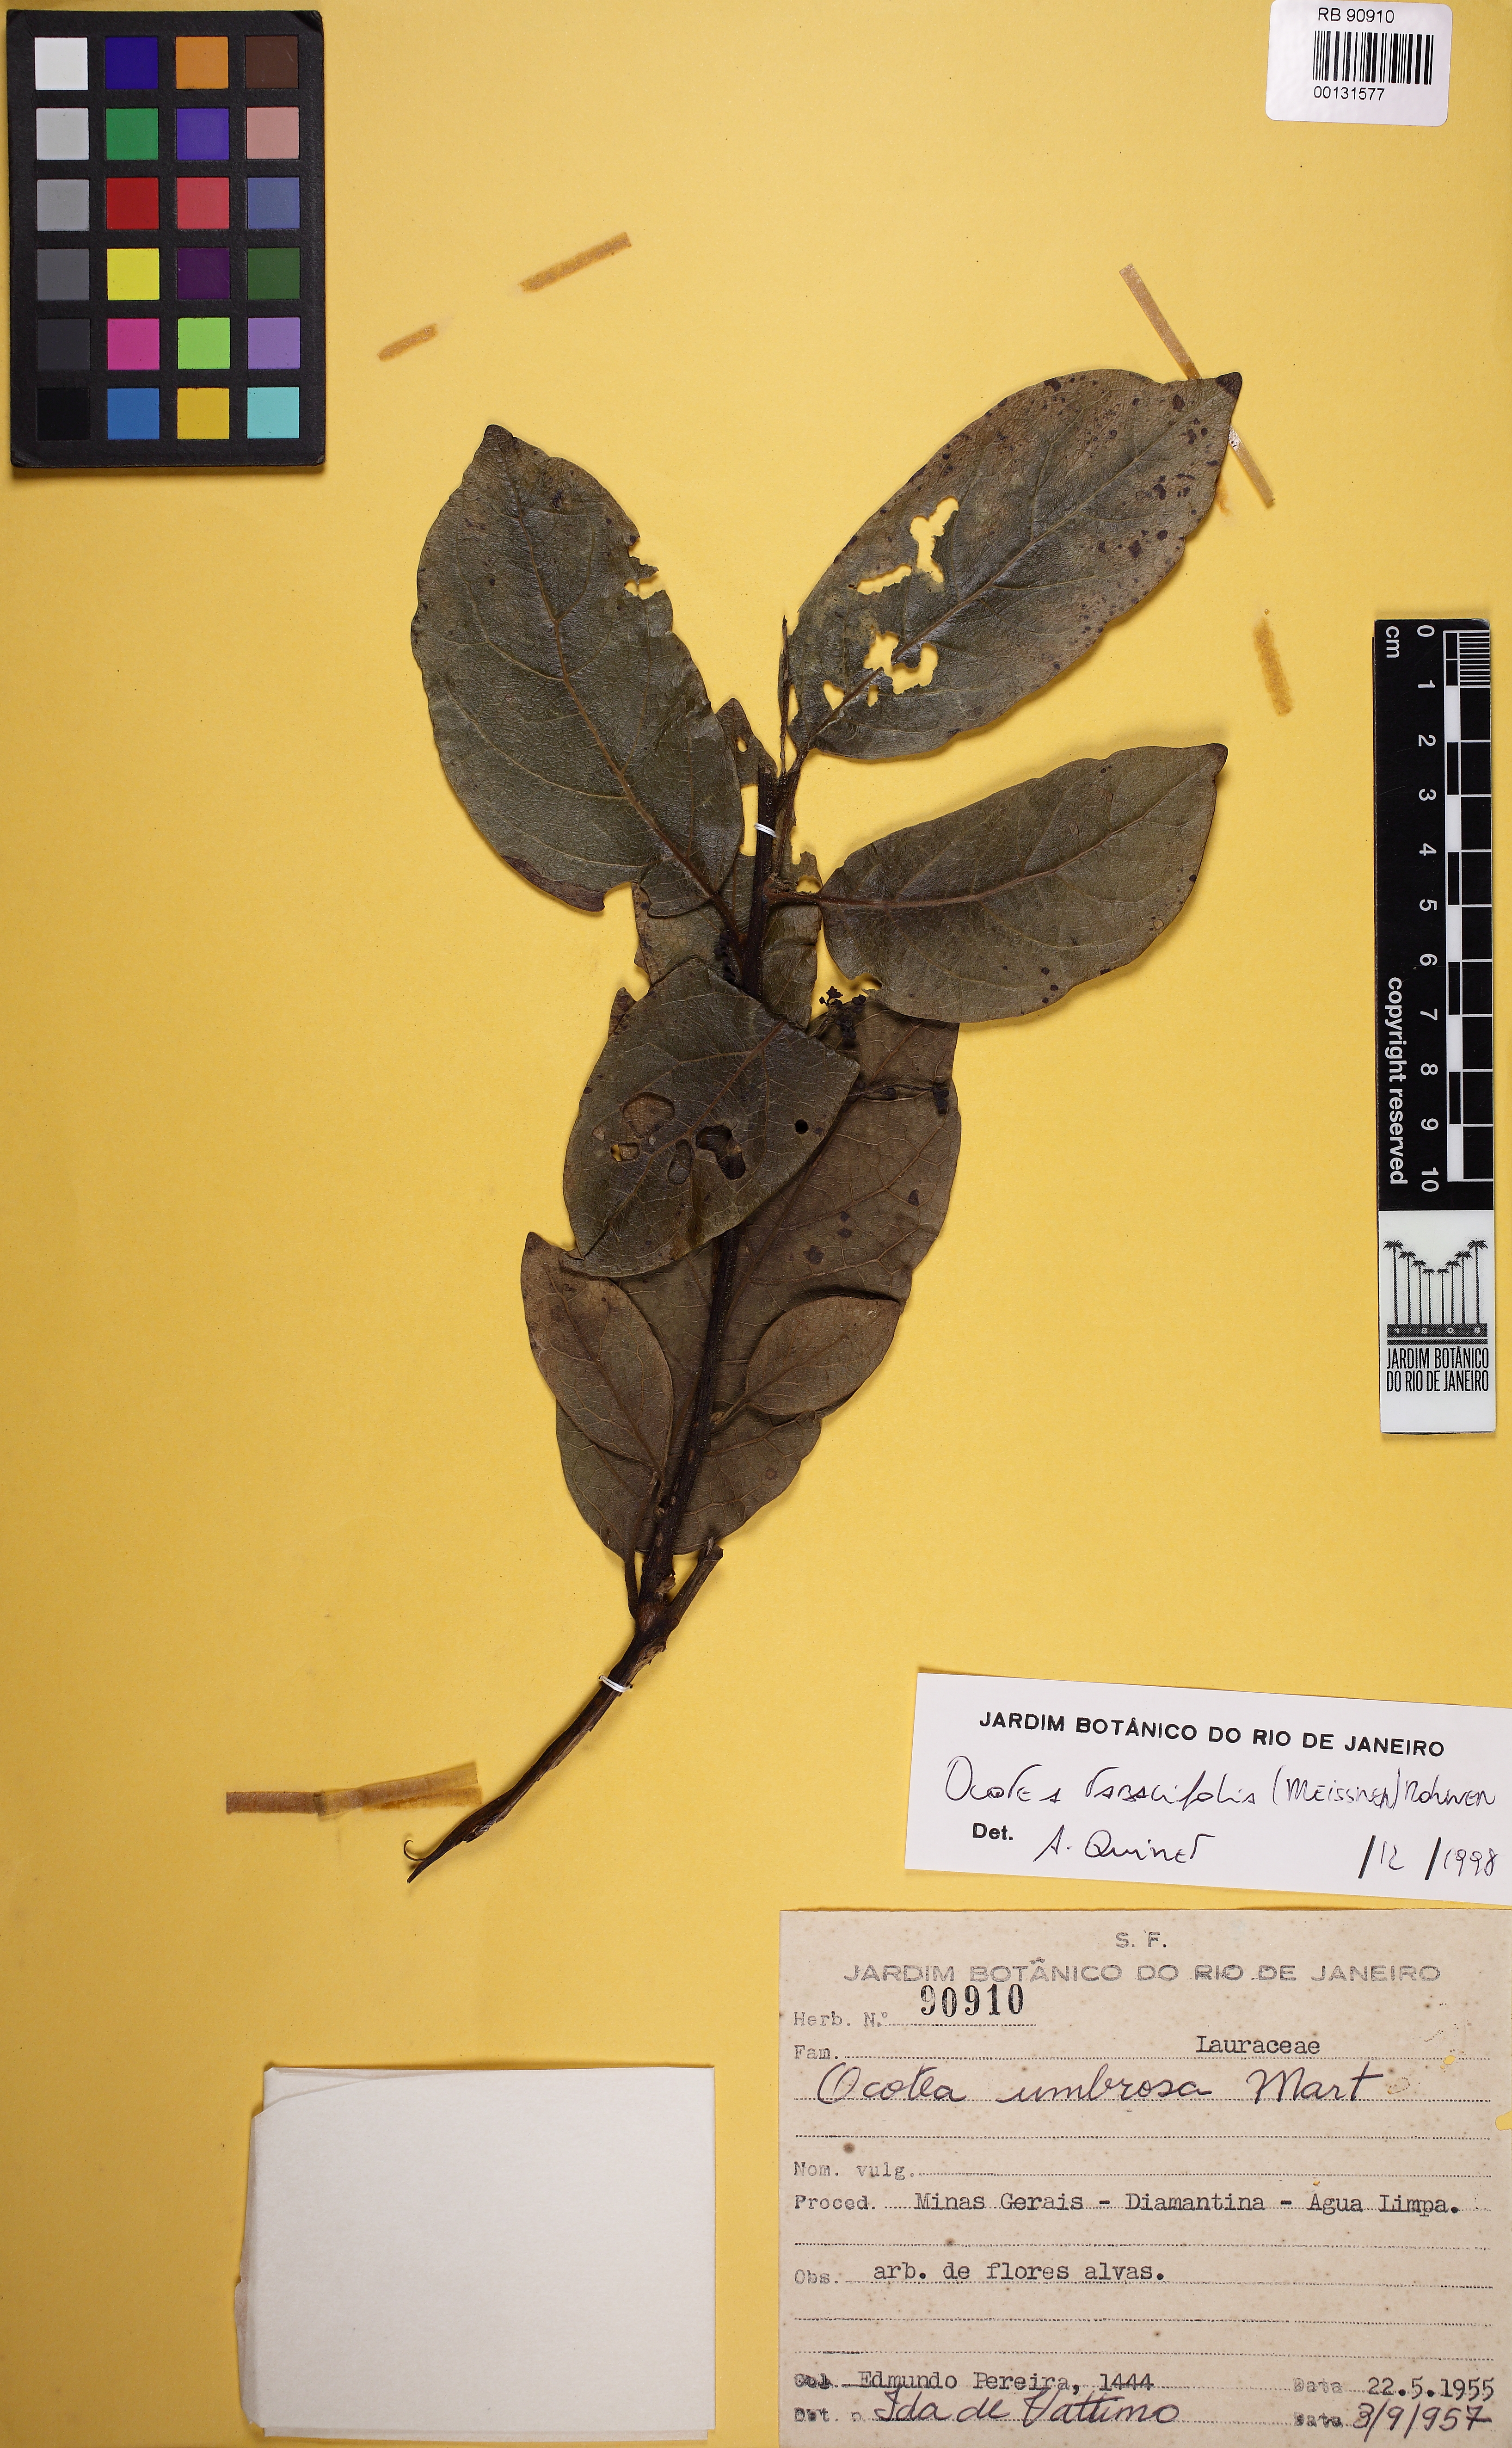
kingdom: Plantae
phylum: Tracheophyta
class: Magnoliopsida
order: Laurales
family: Lauraceae
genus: Ocotea
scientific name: Ocotea tabacifolia
